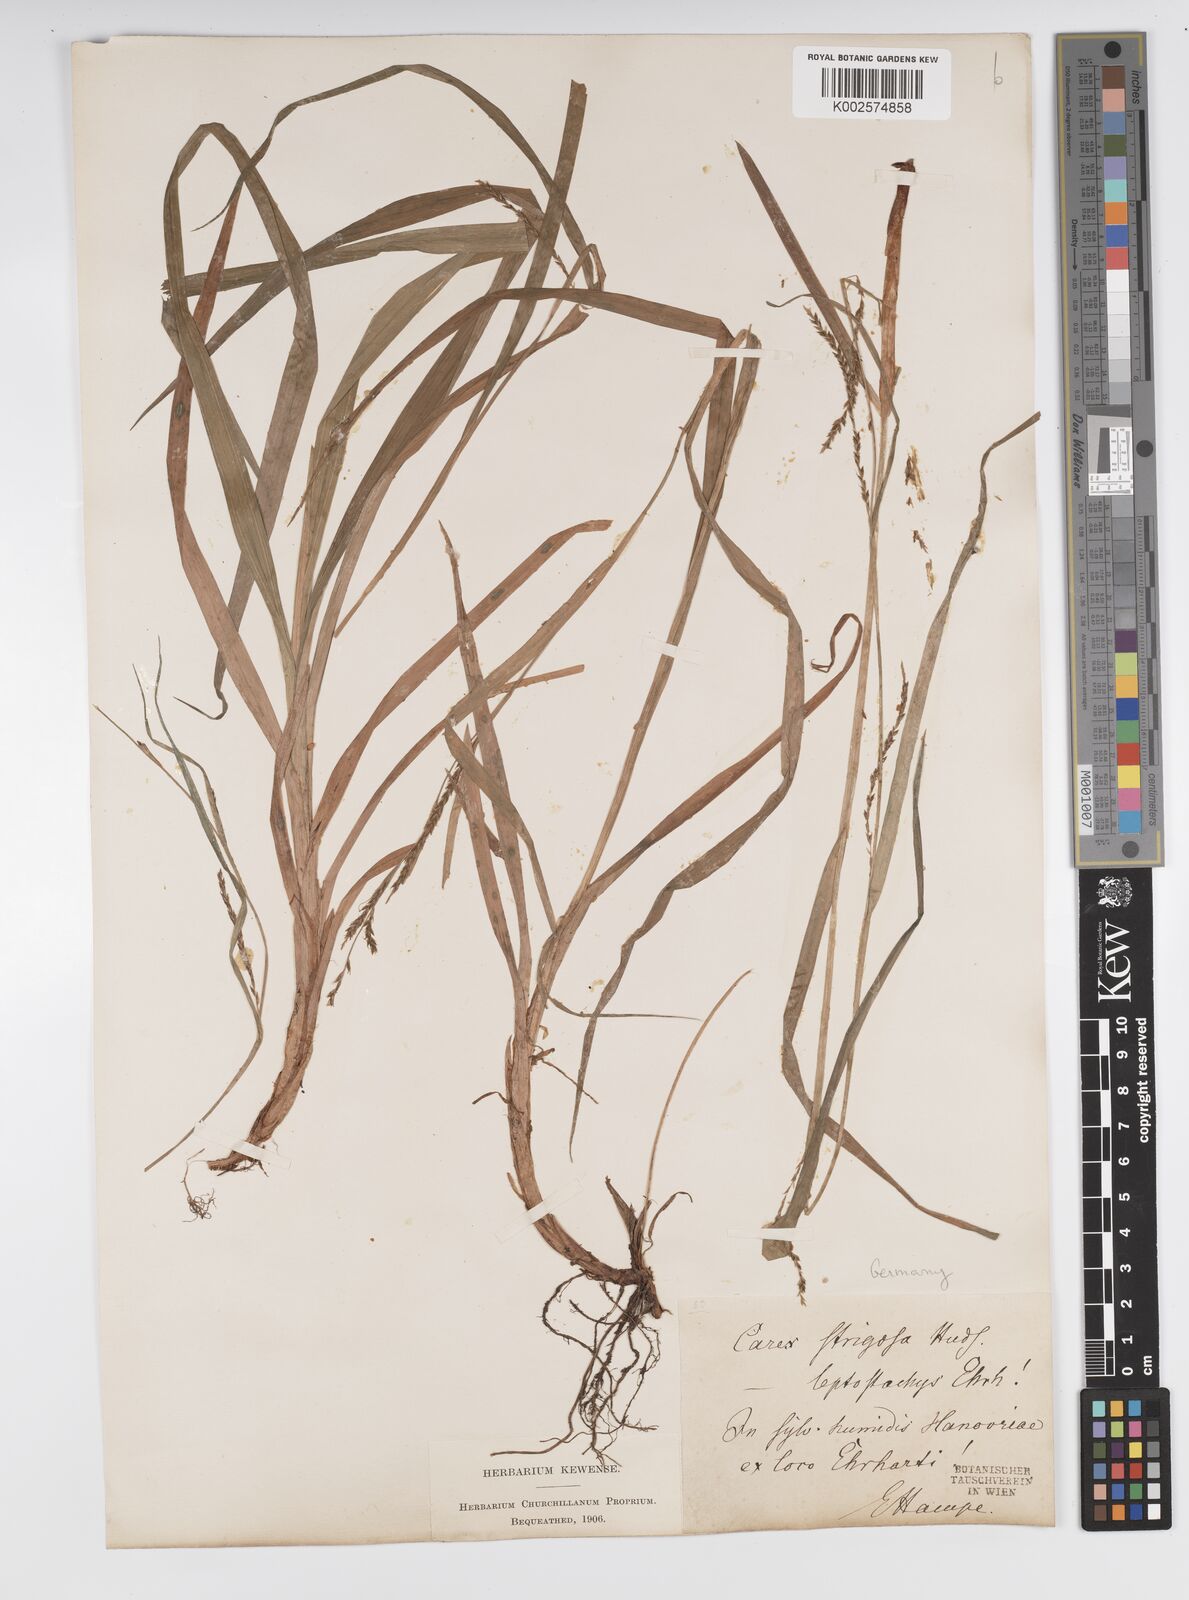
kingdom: Plantae
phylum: Tracheophyta
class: Liliopsida
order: Poales
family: Cyperaceae
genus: Carex
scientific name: Carex strigosa
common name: Thin-spiked wood-sedge
